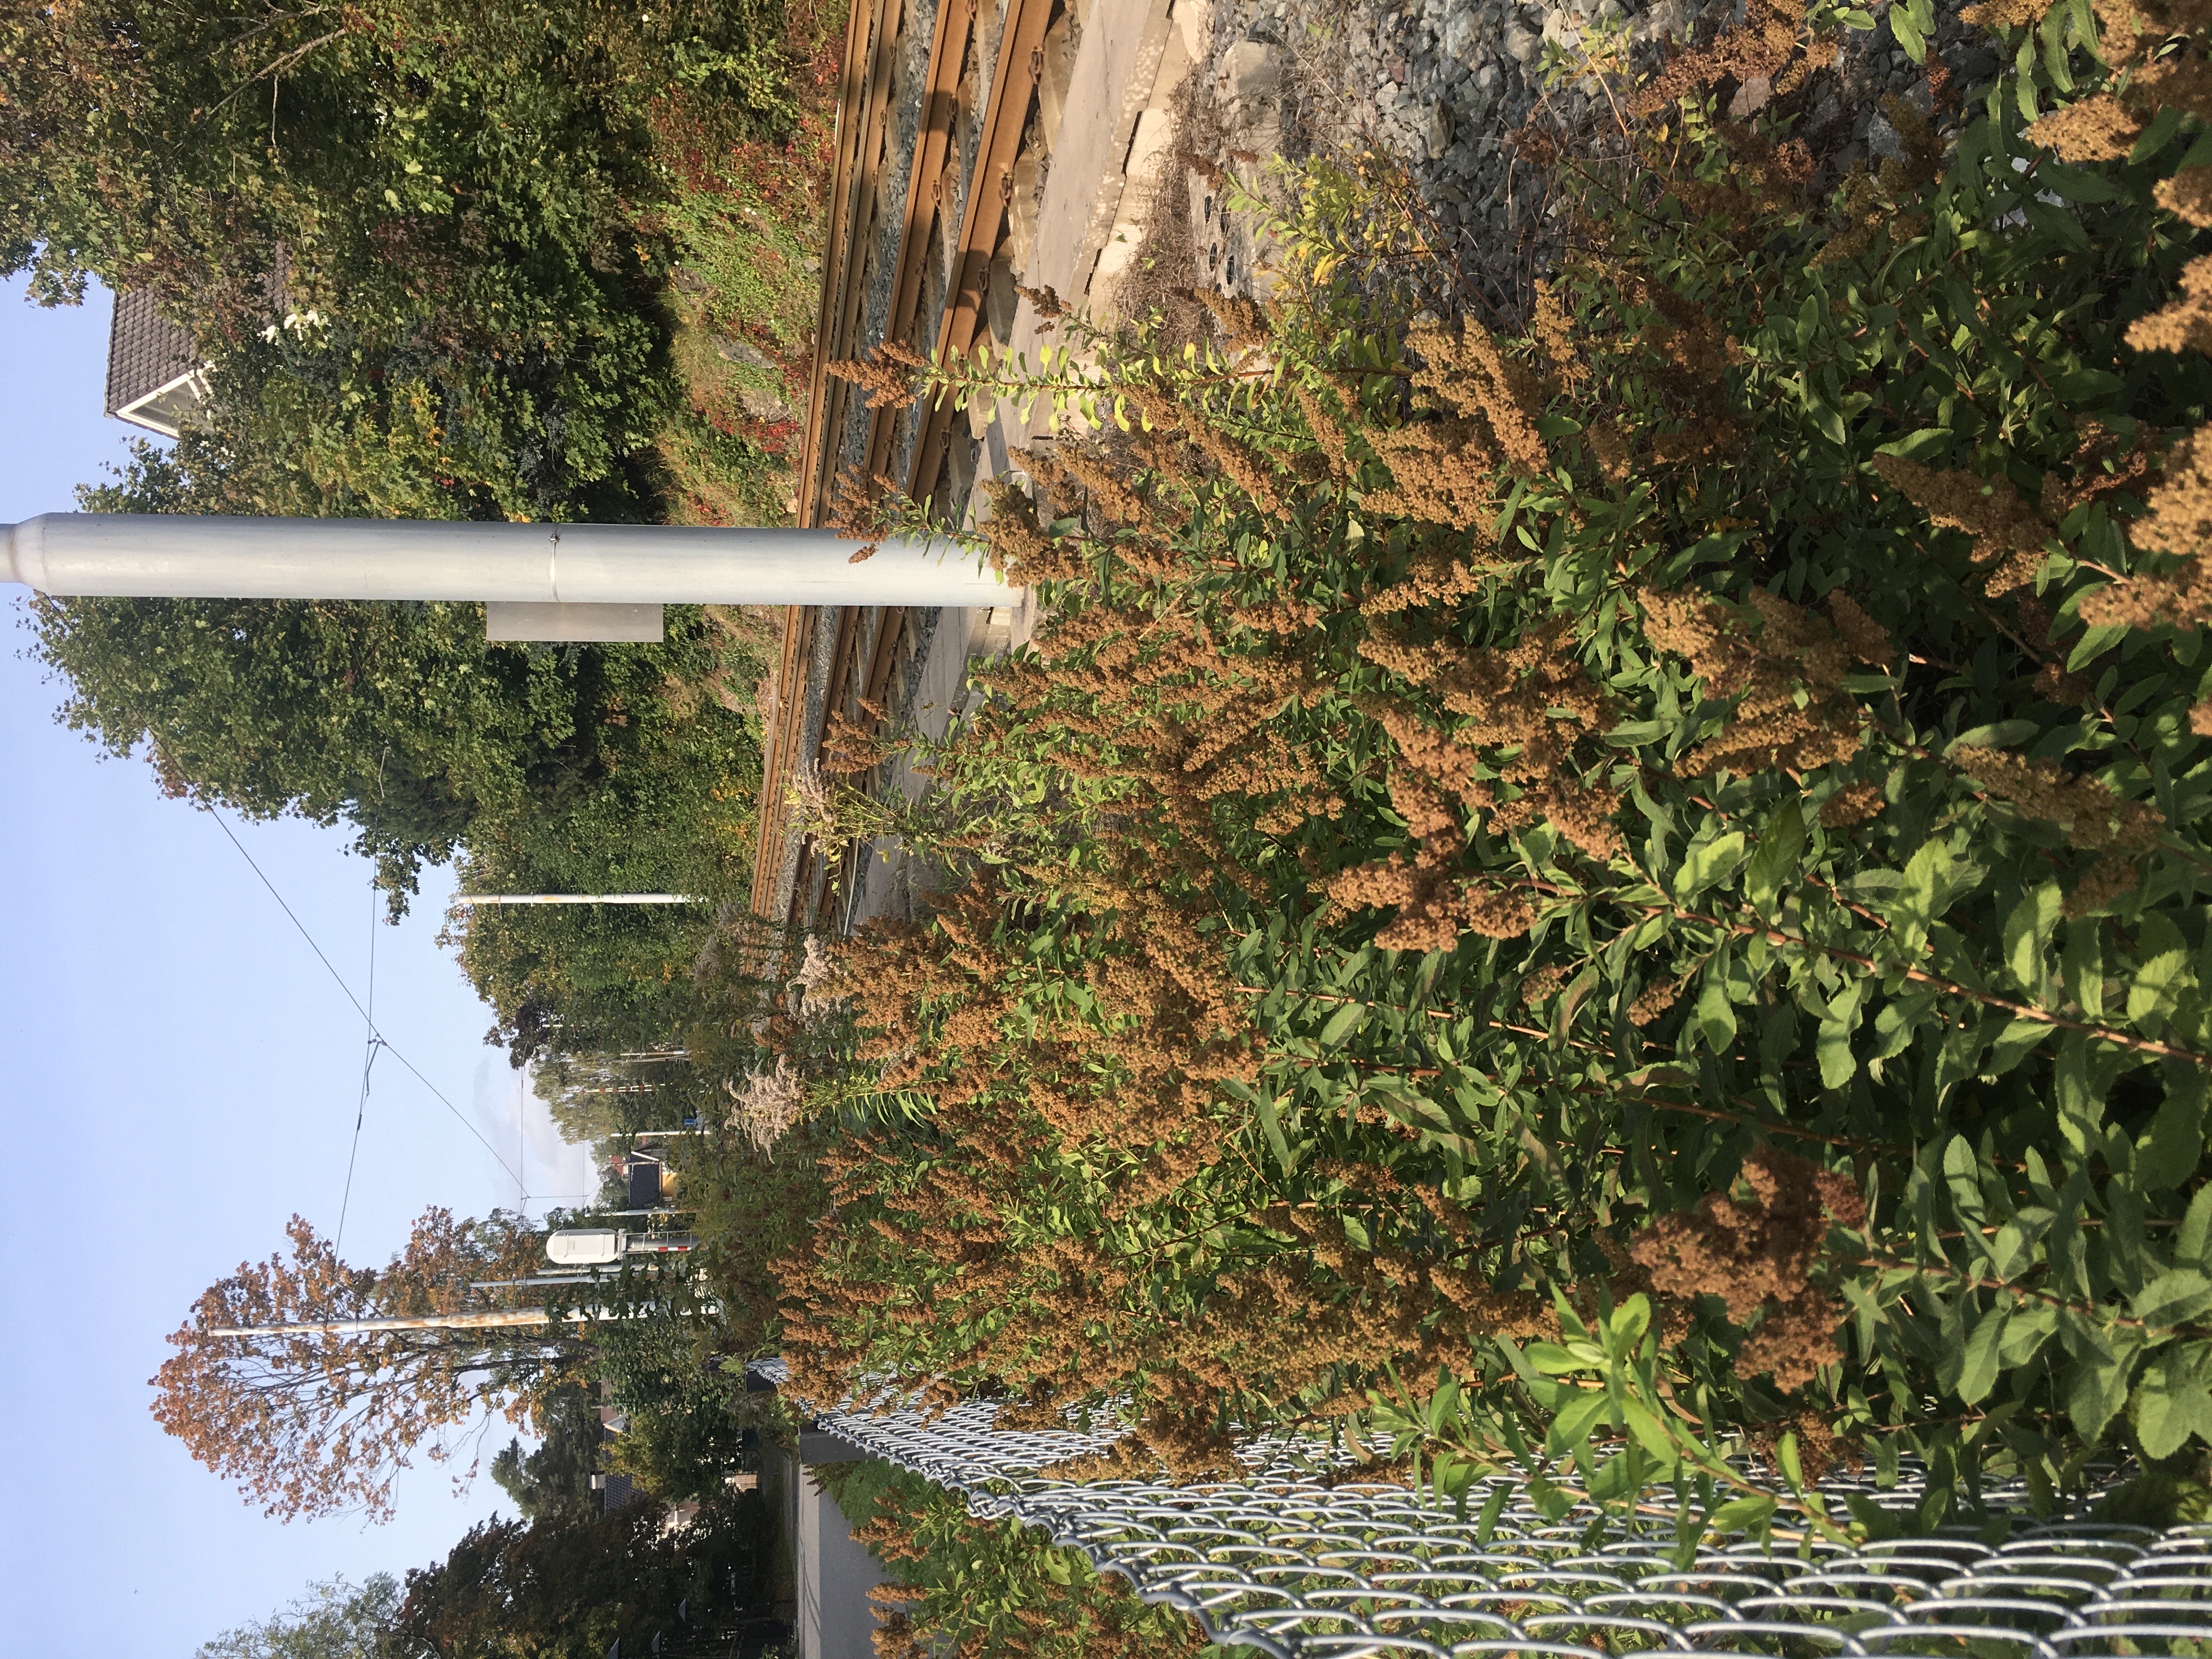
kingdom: Plantae
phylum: Tracheophyta
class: Magnoliopsida
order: Rosales
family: Rosaceae
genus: Spiraea
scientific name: Spiraea alba
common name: breispirea
